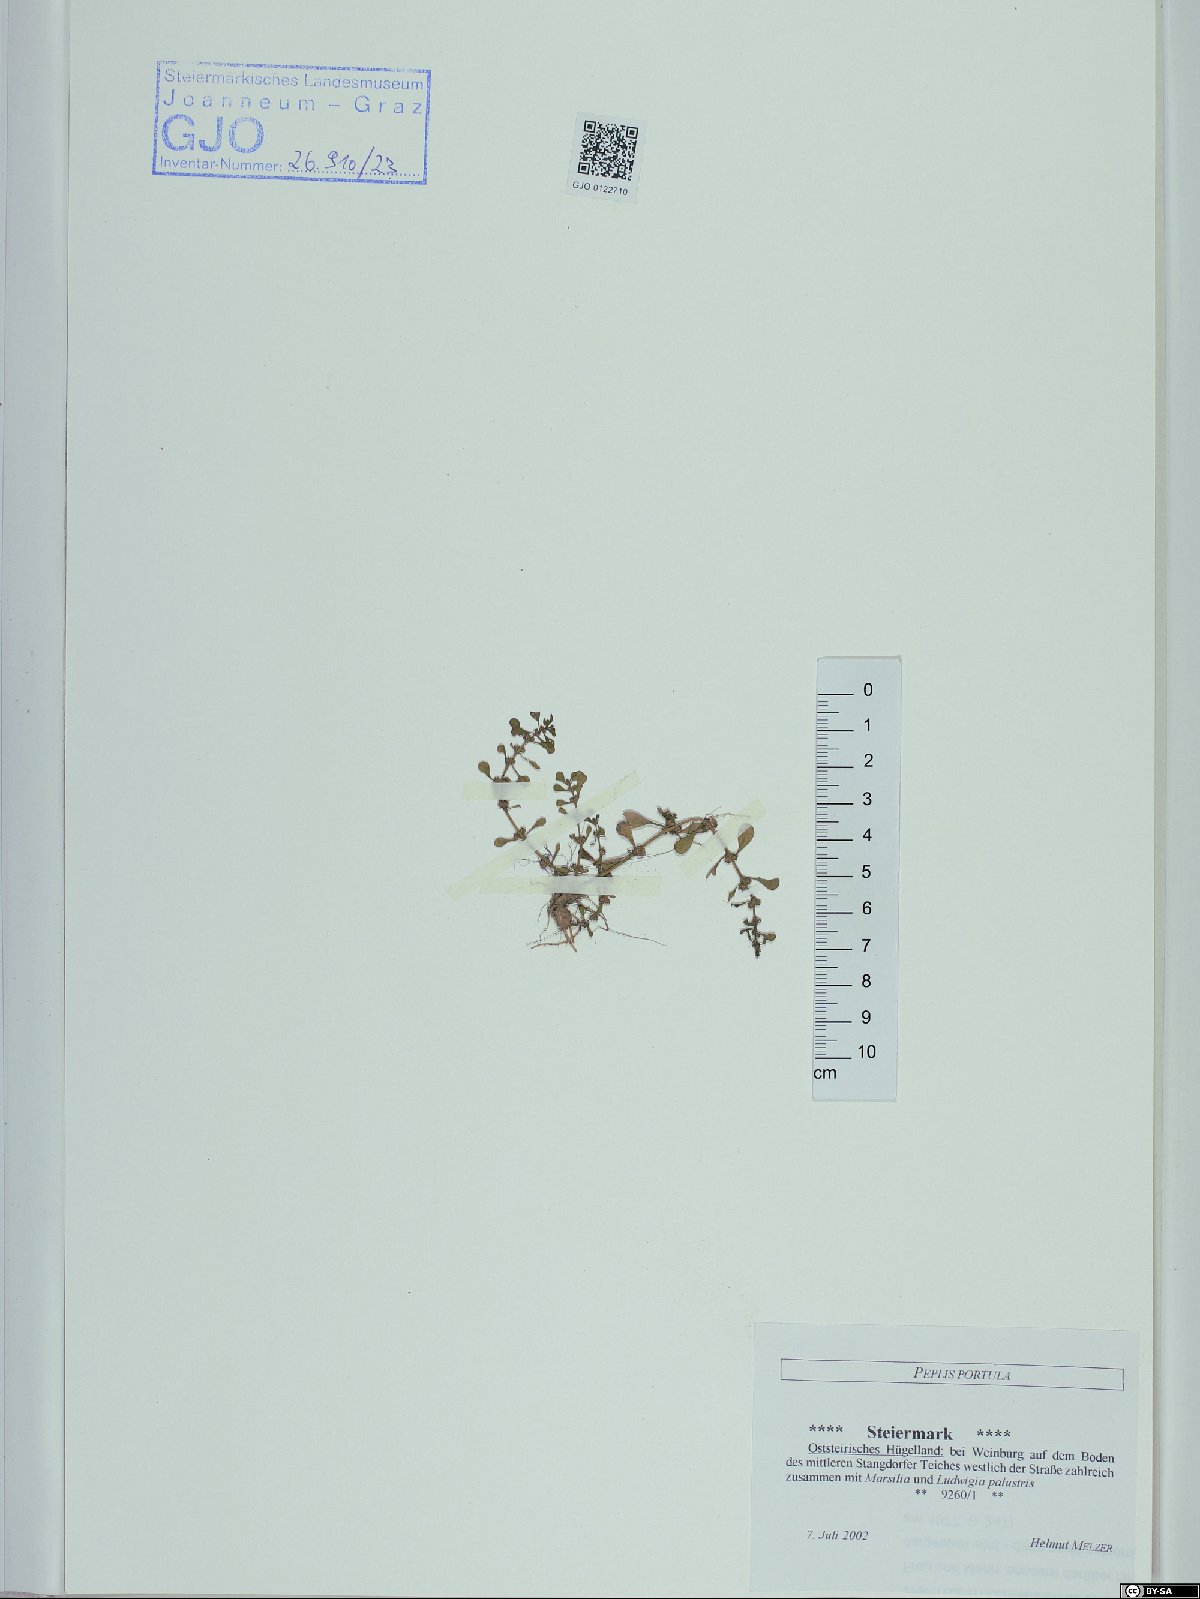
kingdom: Plantae
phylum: Tracheophyta
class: Magnoliopsida
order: Myrtales
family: Lythraceae
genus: Lythrum
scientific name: Lythrum portula
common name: Water purslane
